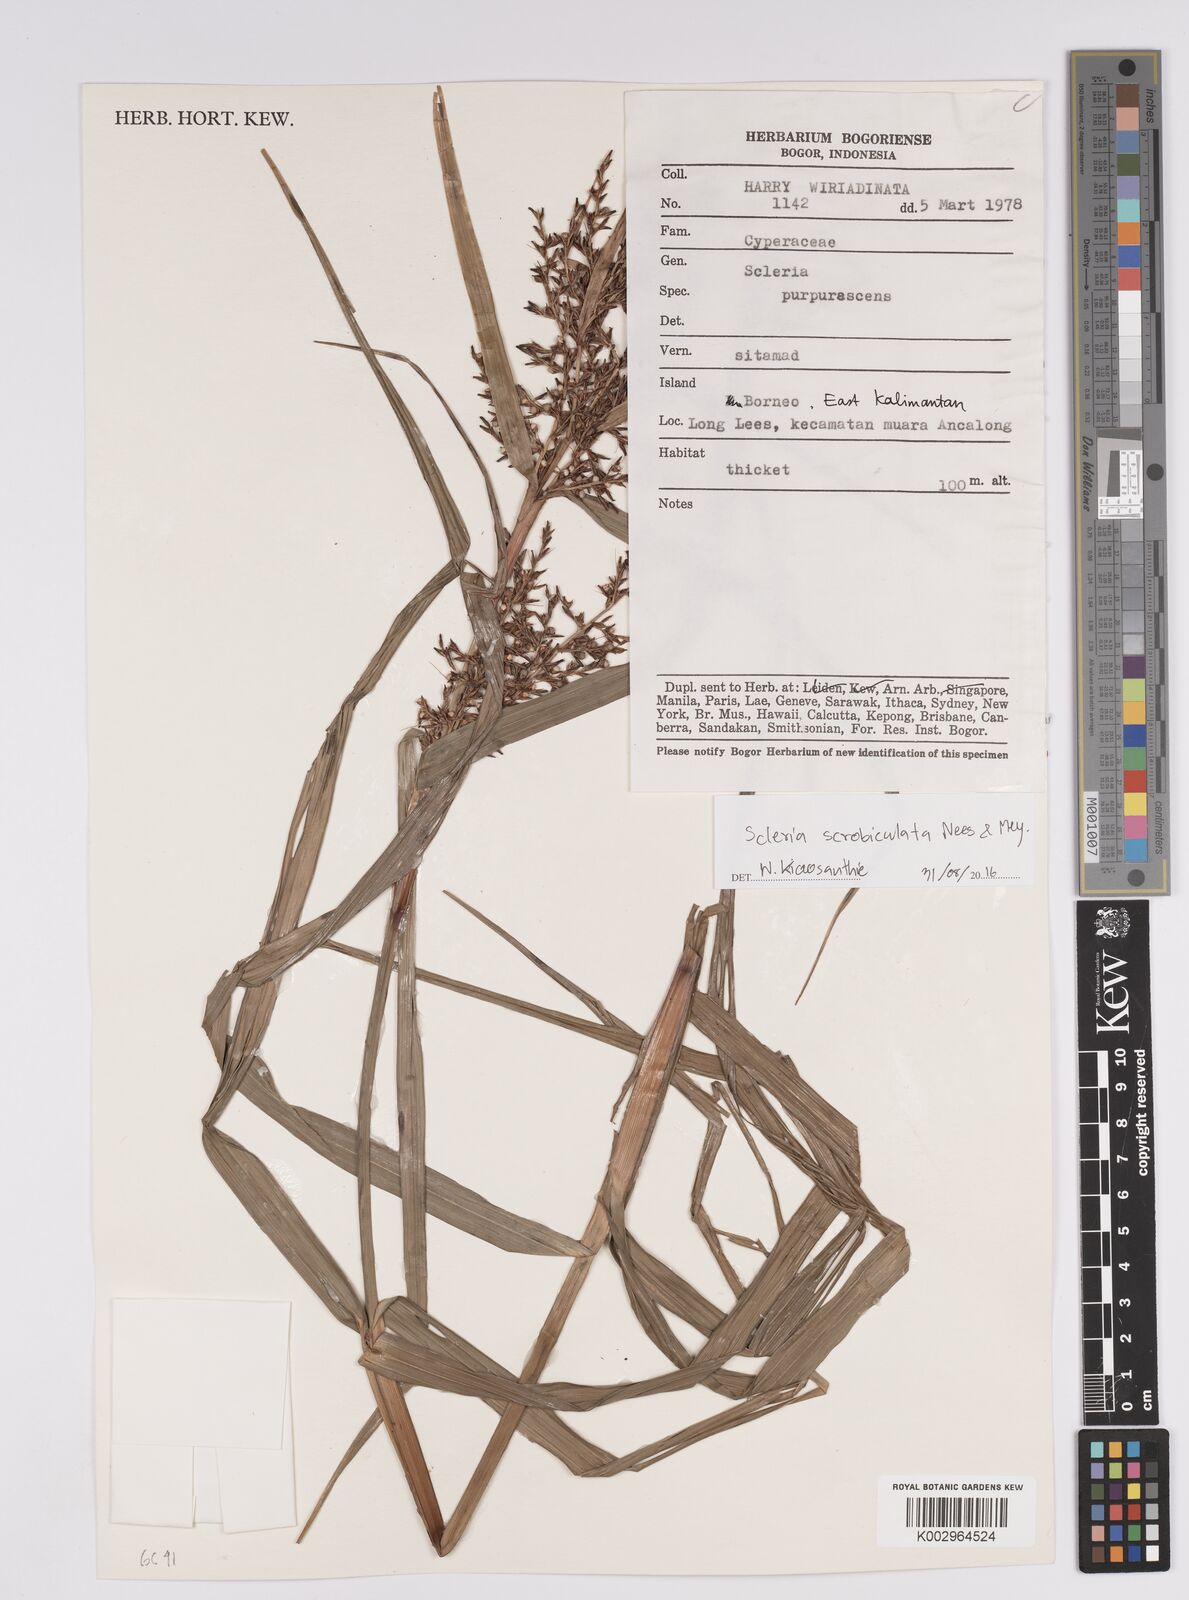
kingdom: Plantae
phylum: Tracheophyta
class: Liliopsida
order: Poales
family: Cyperaceae
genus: Scleria
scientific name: Scleria scrobiculata
